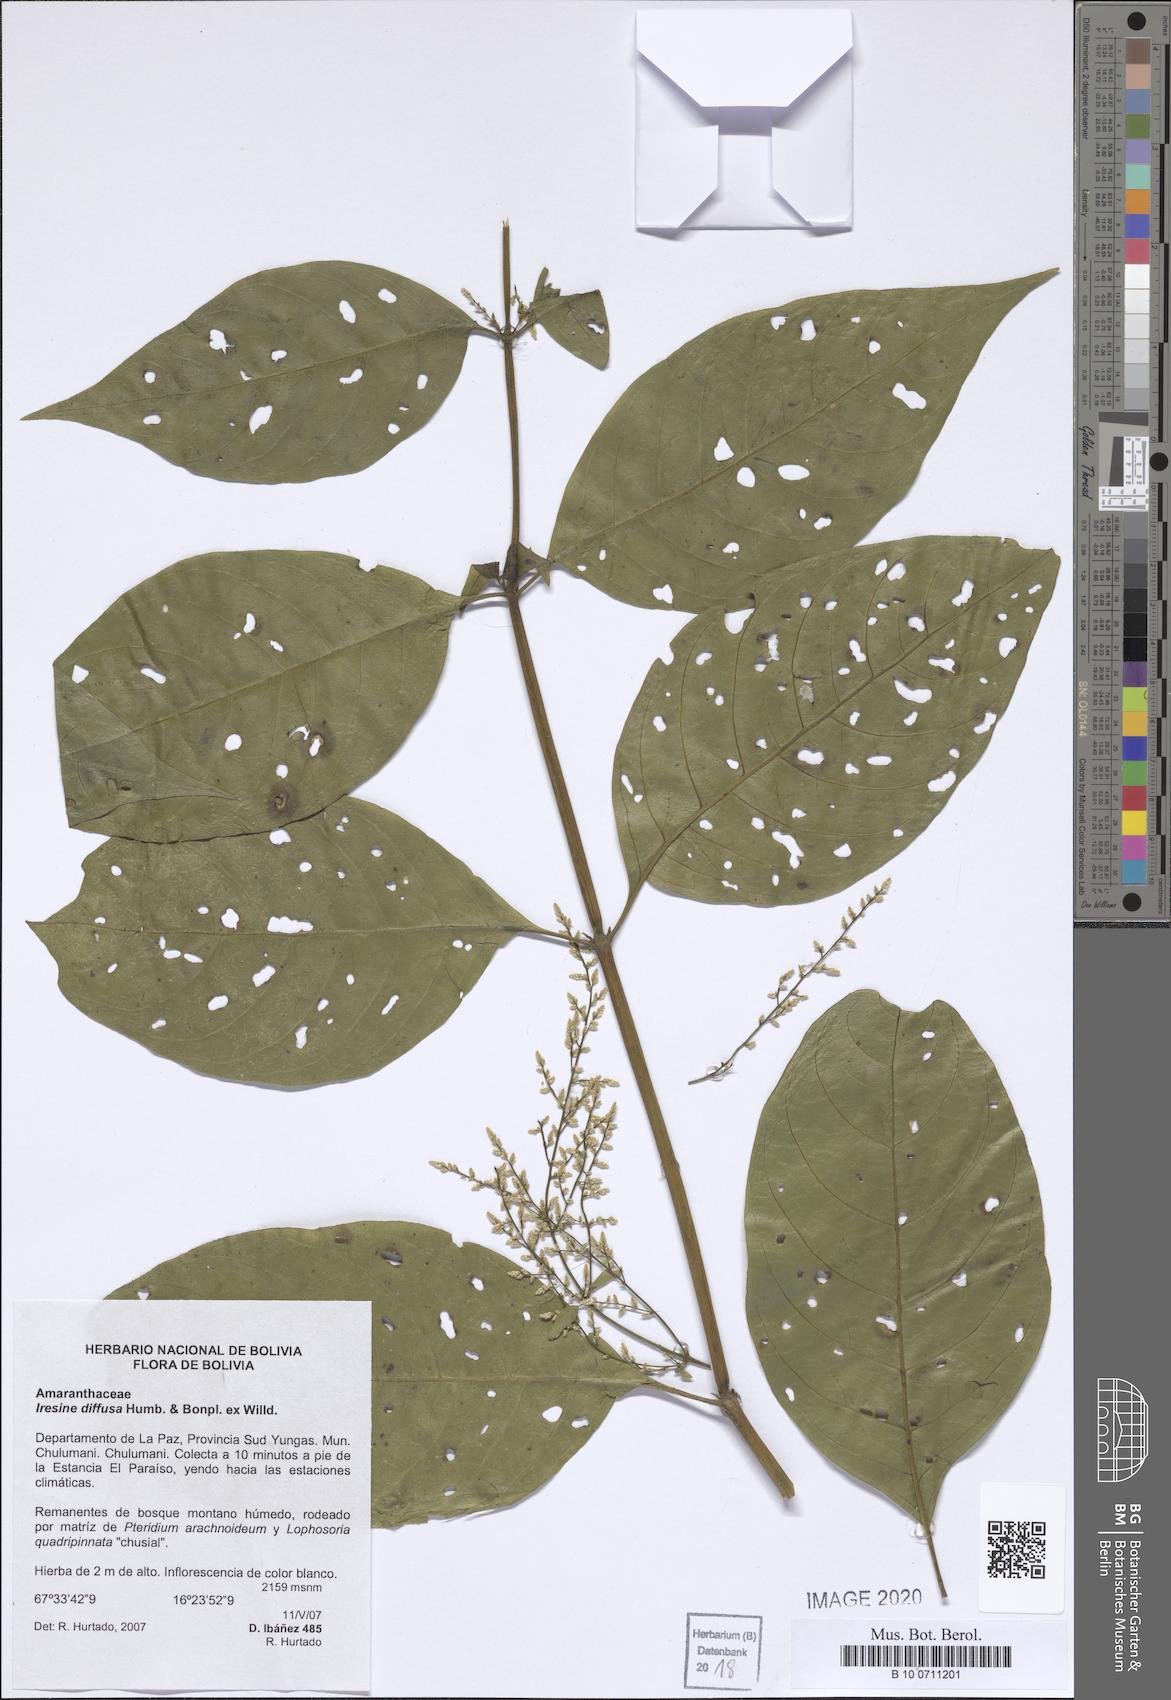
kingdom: Plantae
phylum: Tracheophyta
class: Magnoliopsida
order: Caryophyllales
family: Amaranthaceae
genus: Iresine
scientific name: Iresine diffusa
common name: Juba's-bush
